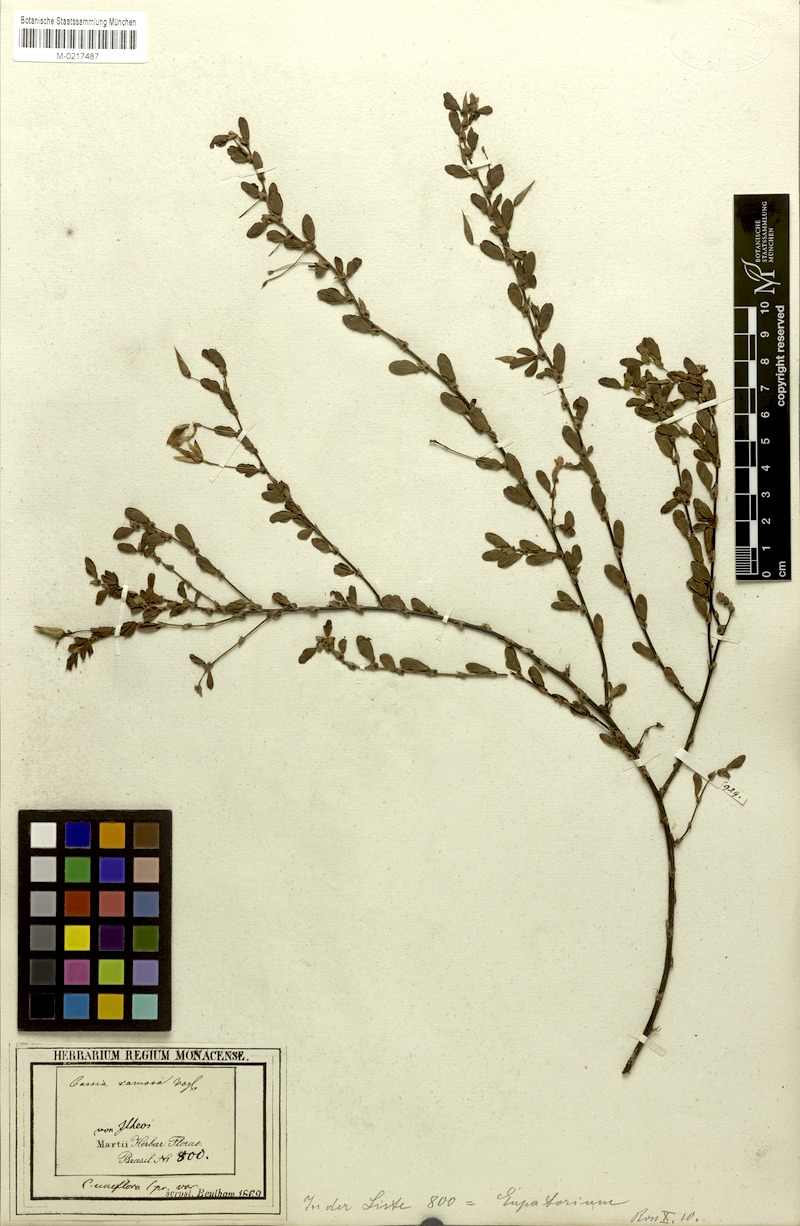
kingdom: Plantae
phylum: Tracheophyta
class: Magnoliopsida
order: Fabales
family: Fabaceae
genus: Chamaecrista
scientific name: Chamaecrista ramosa
